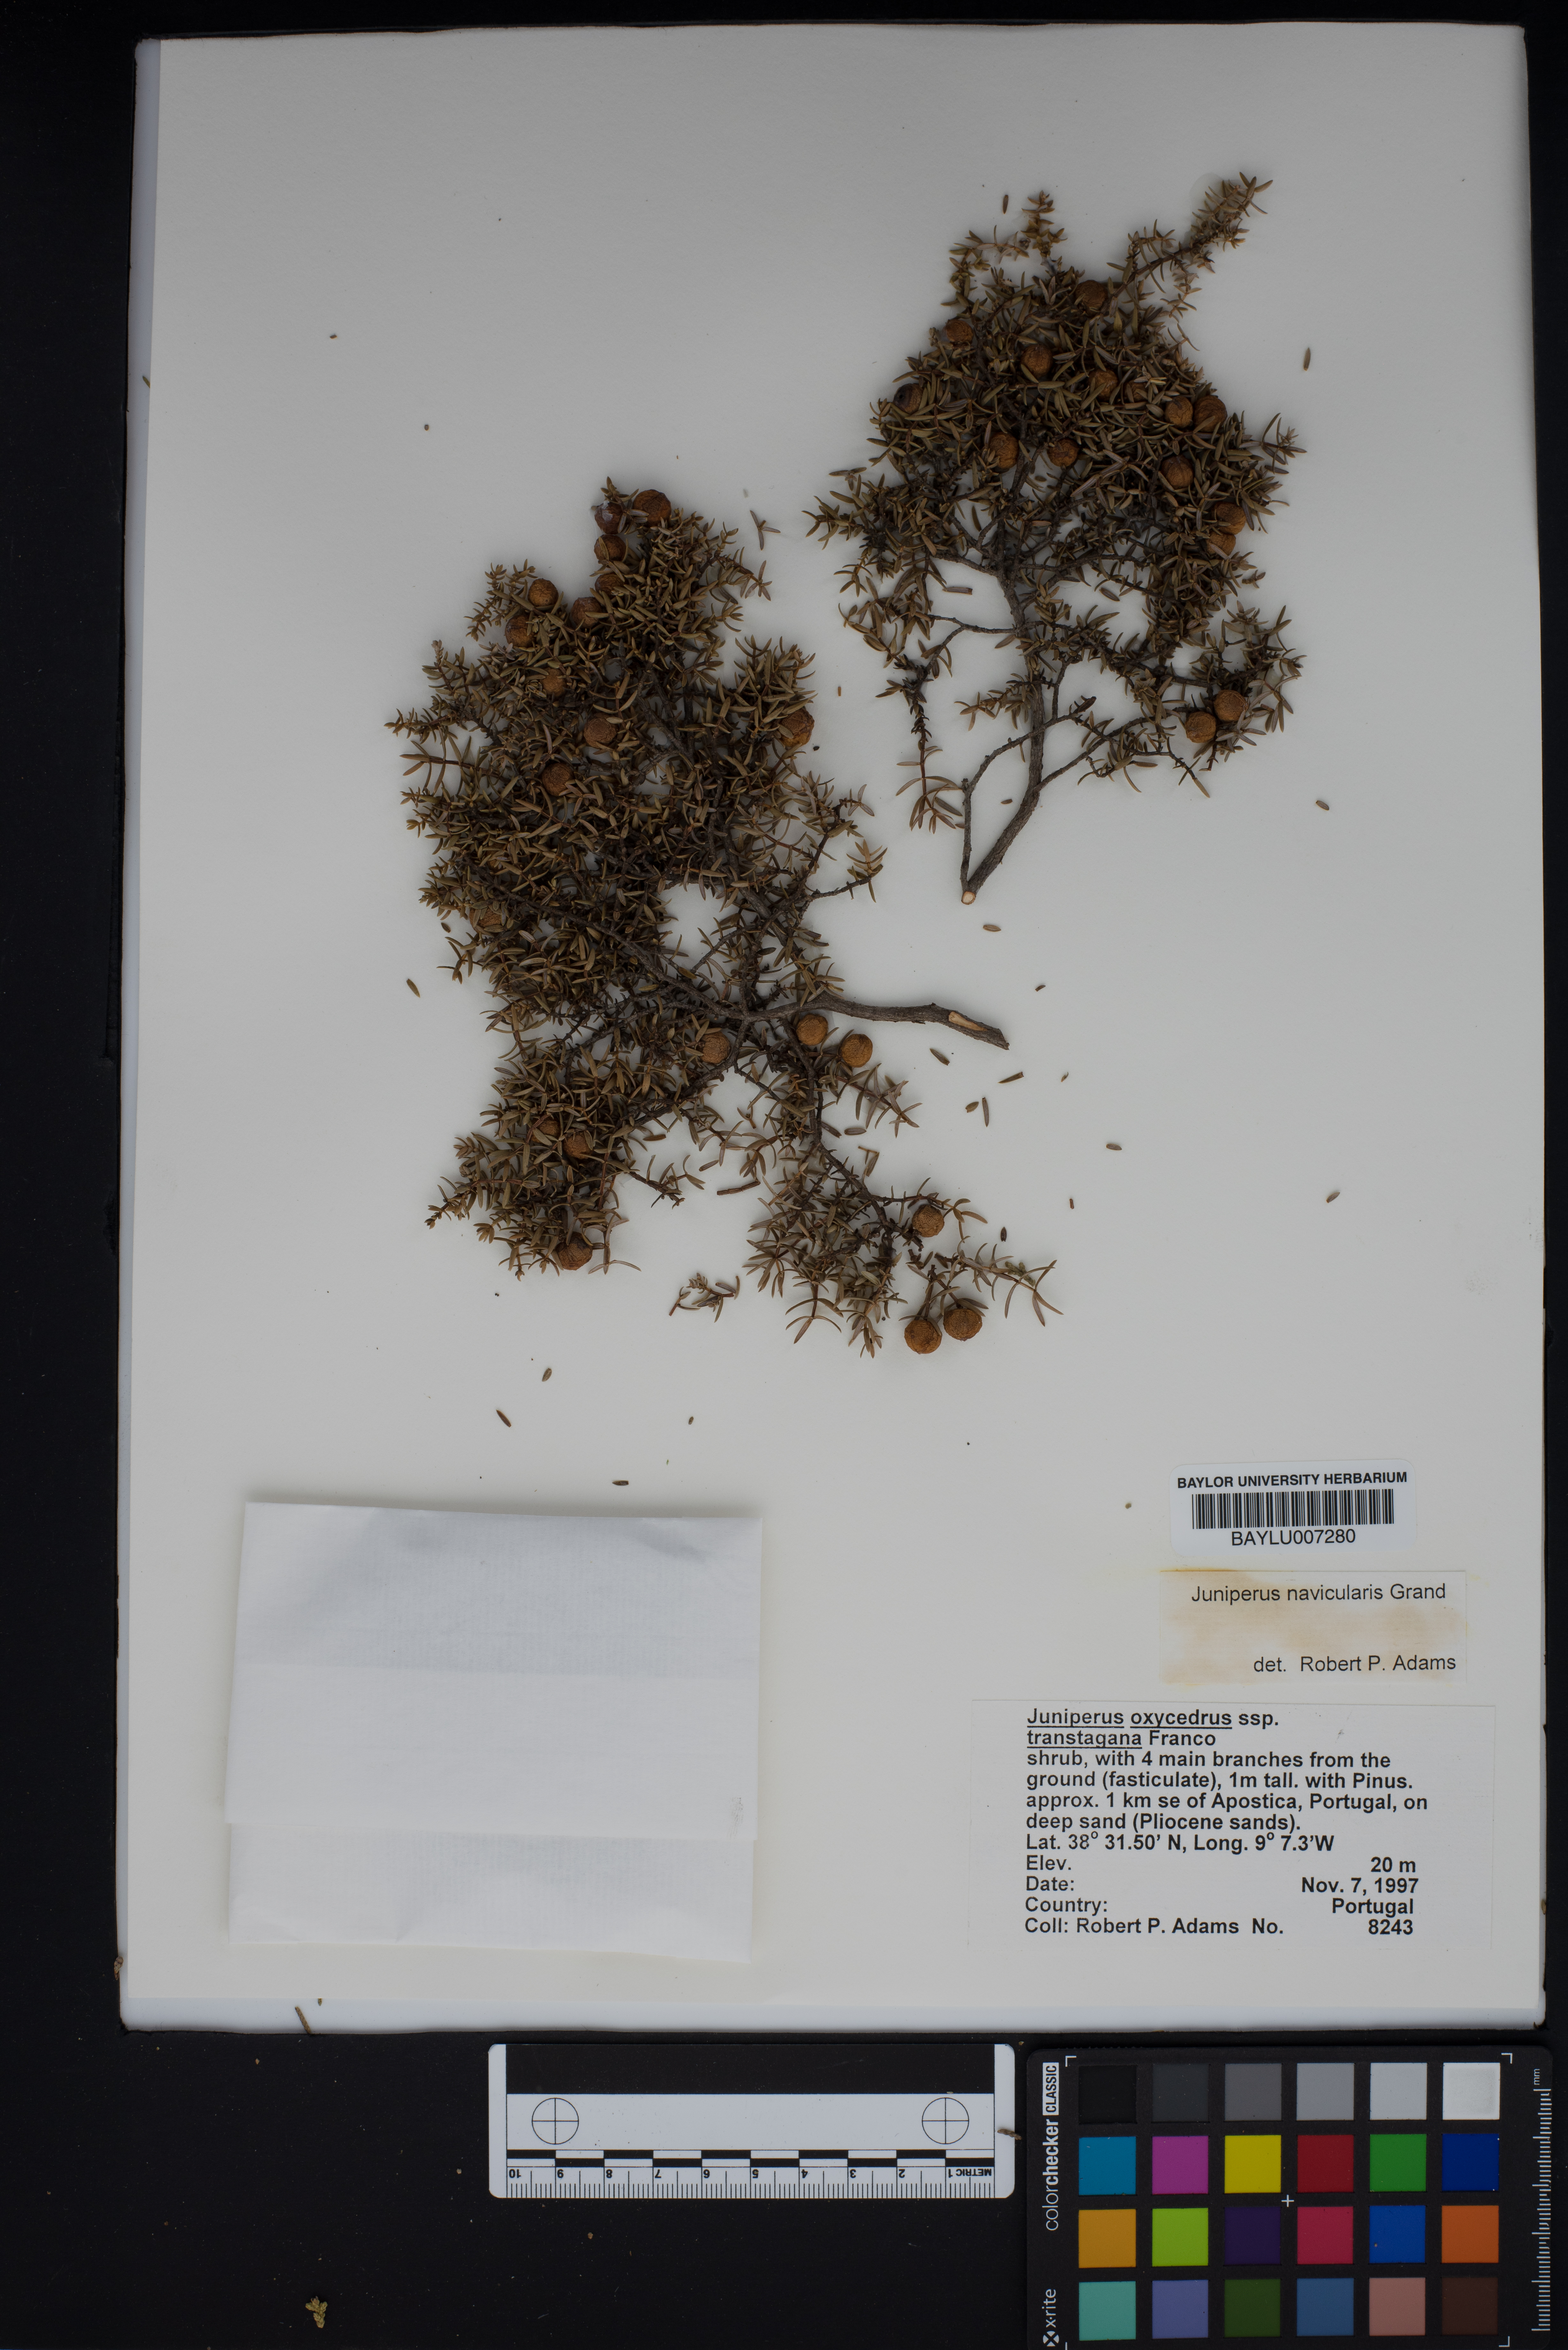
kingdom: Plantae
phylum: Tracheophyta
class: Pinopsida
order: Pinales
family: Cupressaceae
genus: Juniperus
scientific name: Juniperus oxycedrus
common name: Prickly juniper
